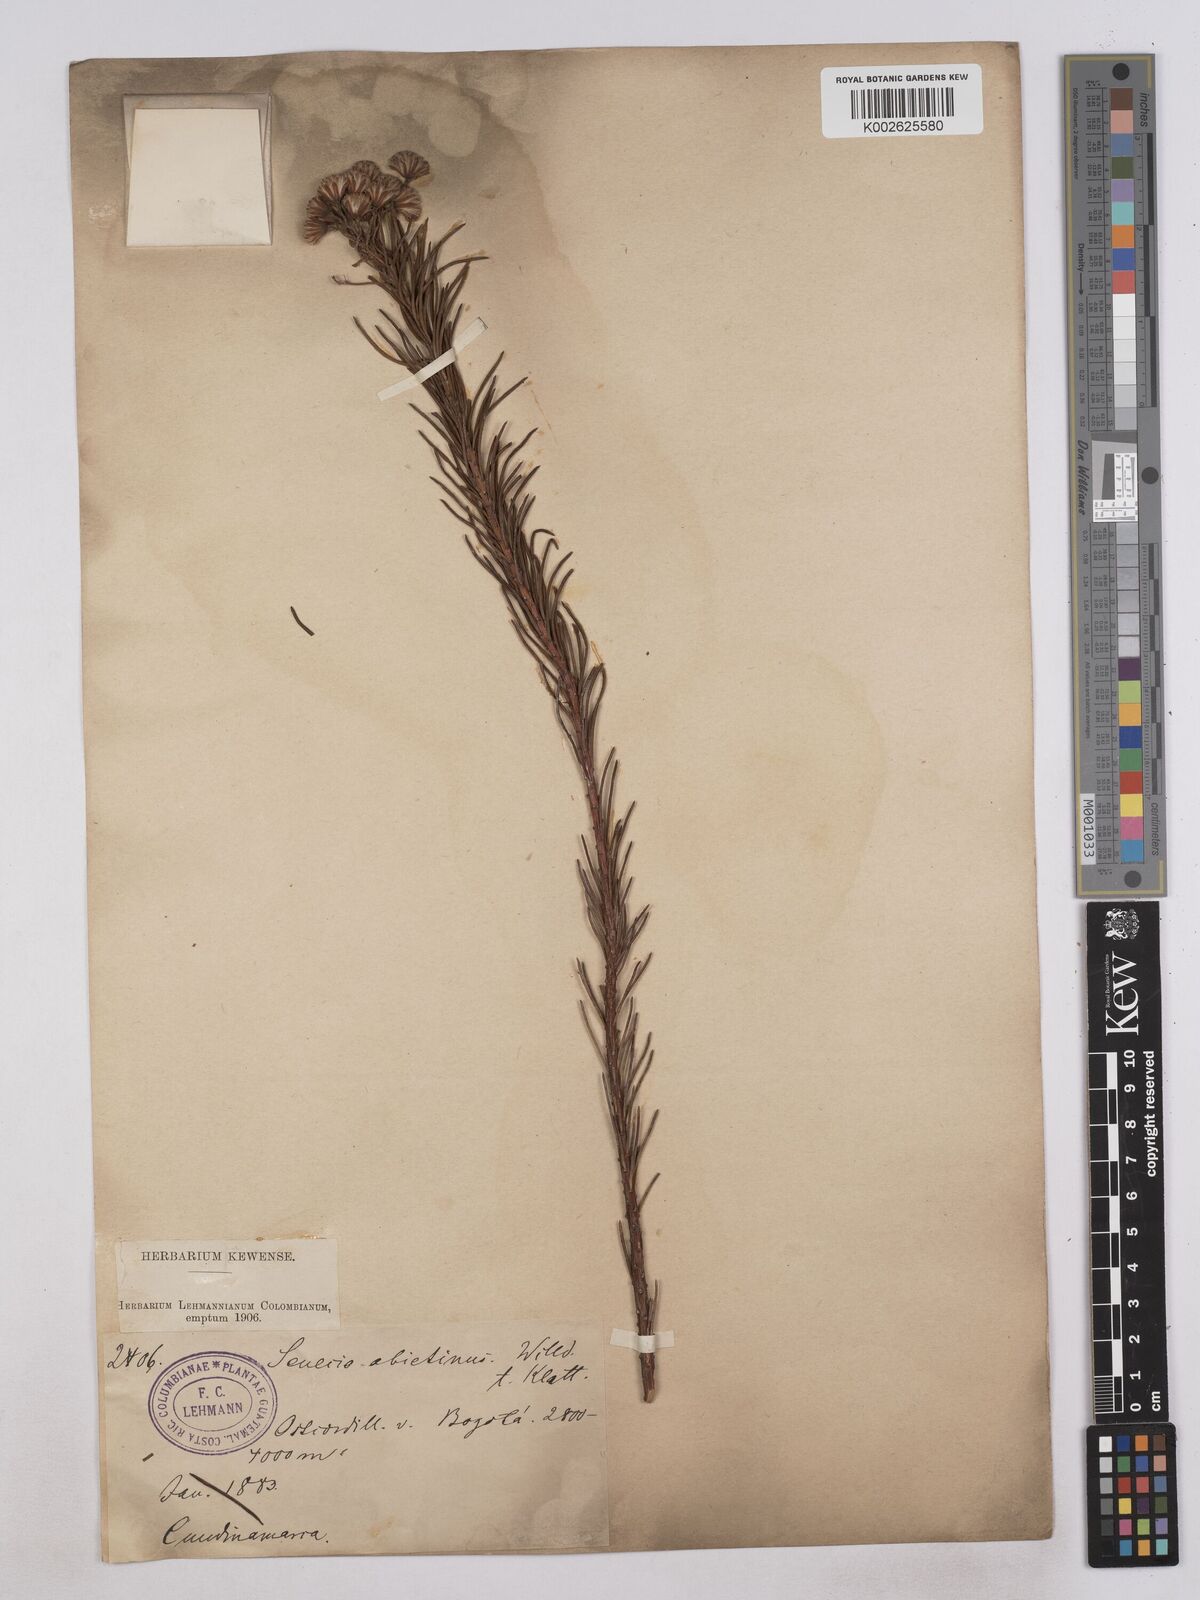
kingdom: Plantae
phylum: Tracheophyta
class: Magnoliopsida
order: Asterales
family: Asteraceae
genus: Monticalia
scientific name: Monticalia abietina
